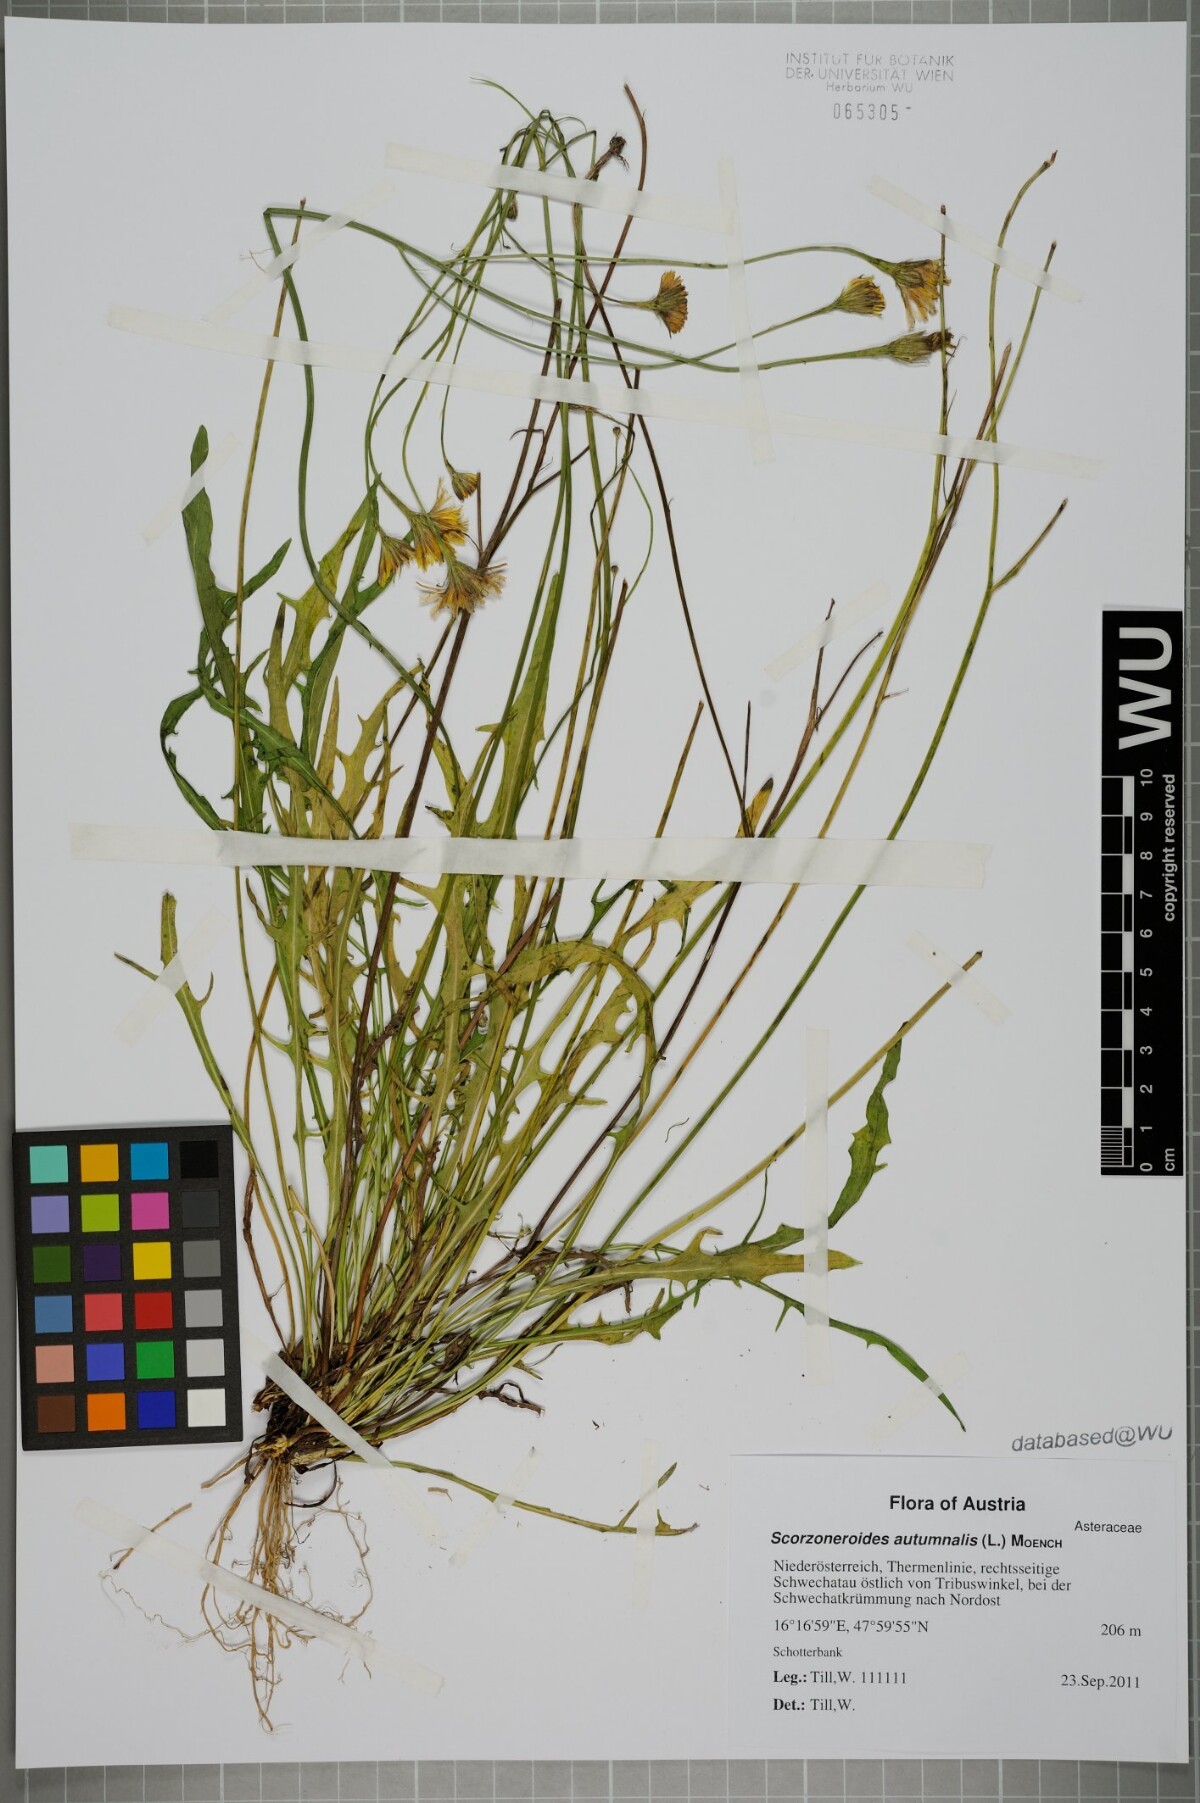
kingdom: Plantae
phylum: Tracheophyta
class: Magnoliopsida
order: Asterales
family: Asteraceae
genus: Scorzoneroides
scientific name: Scorzoneroides autumnalis
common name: Autumn hawkbit
